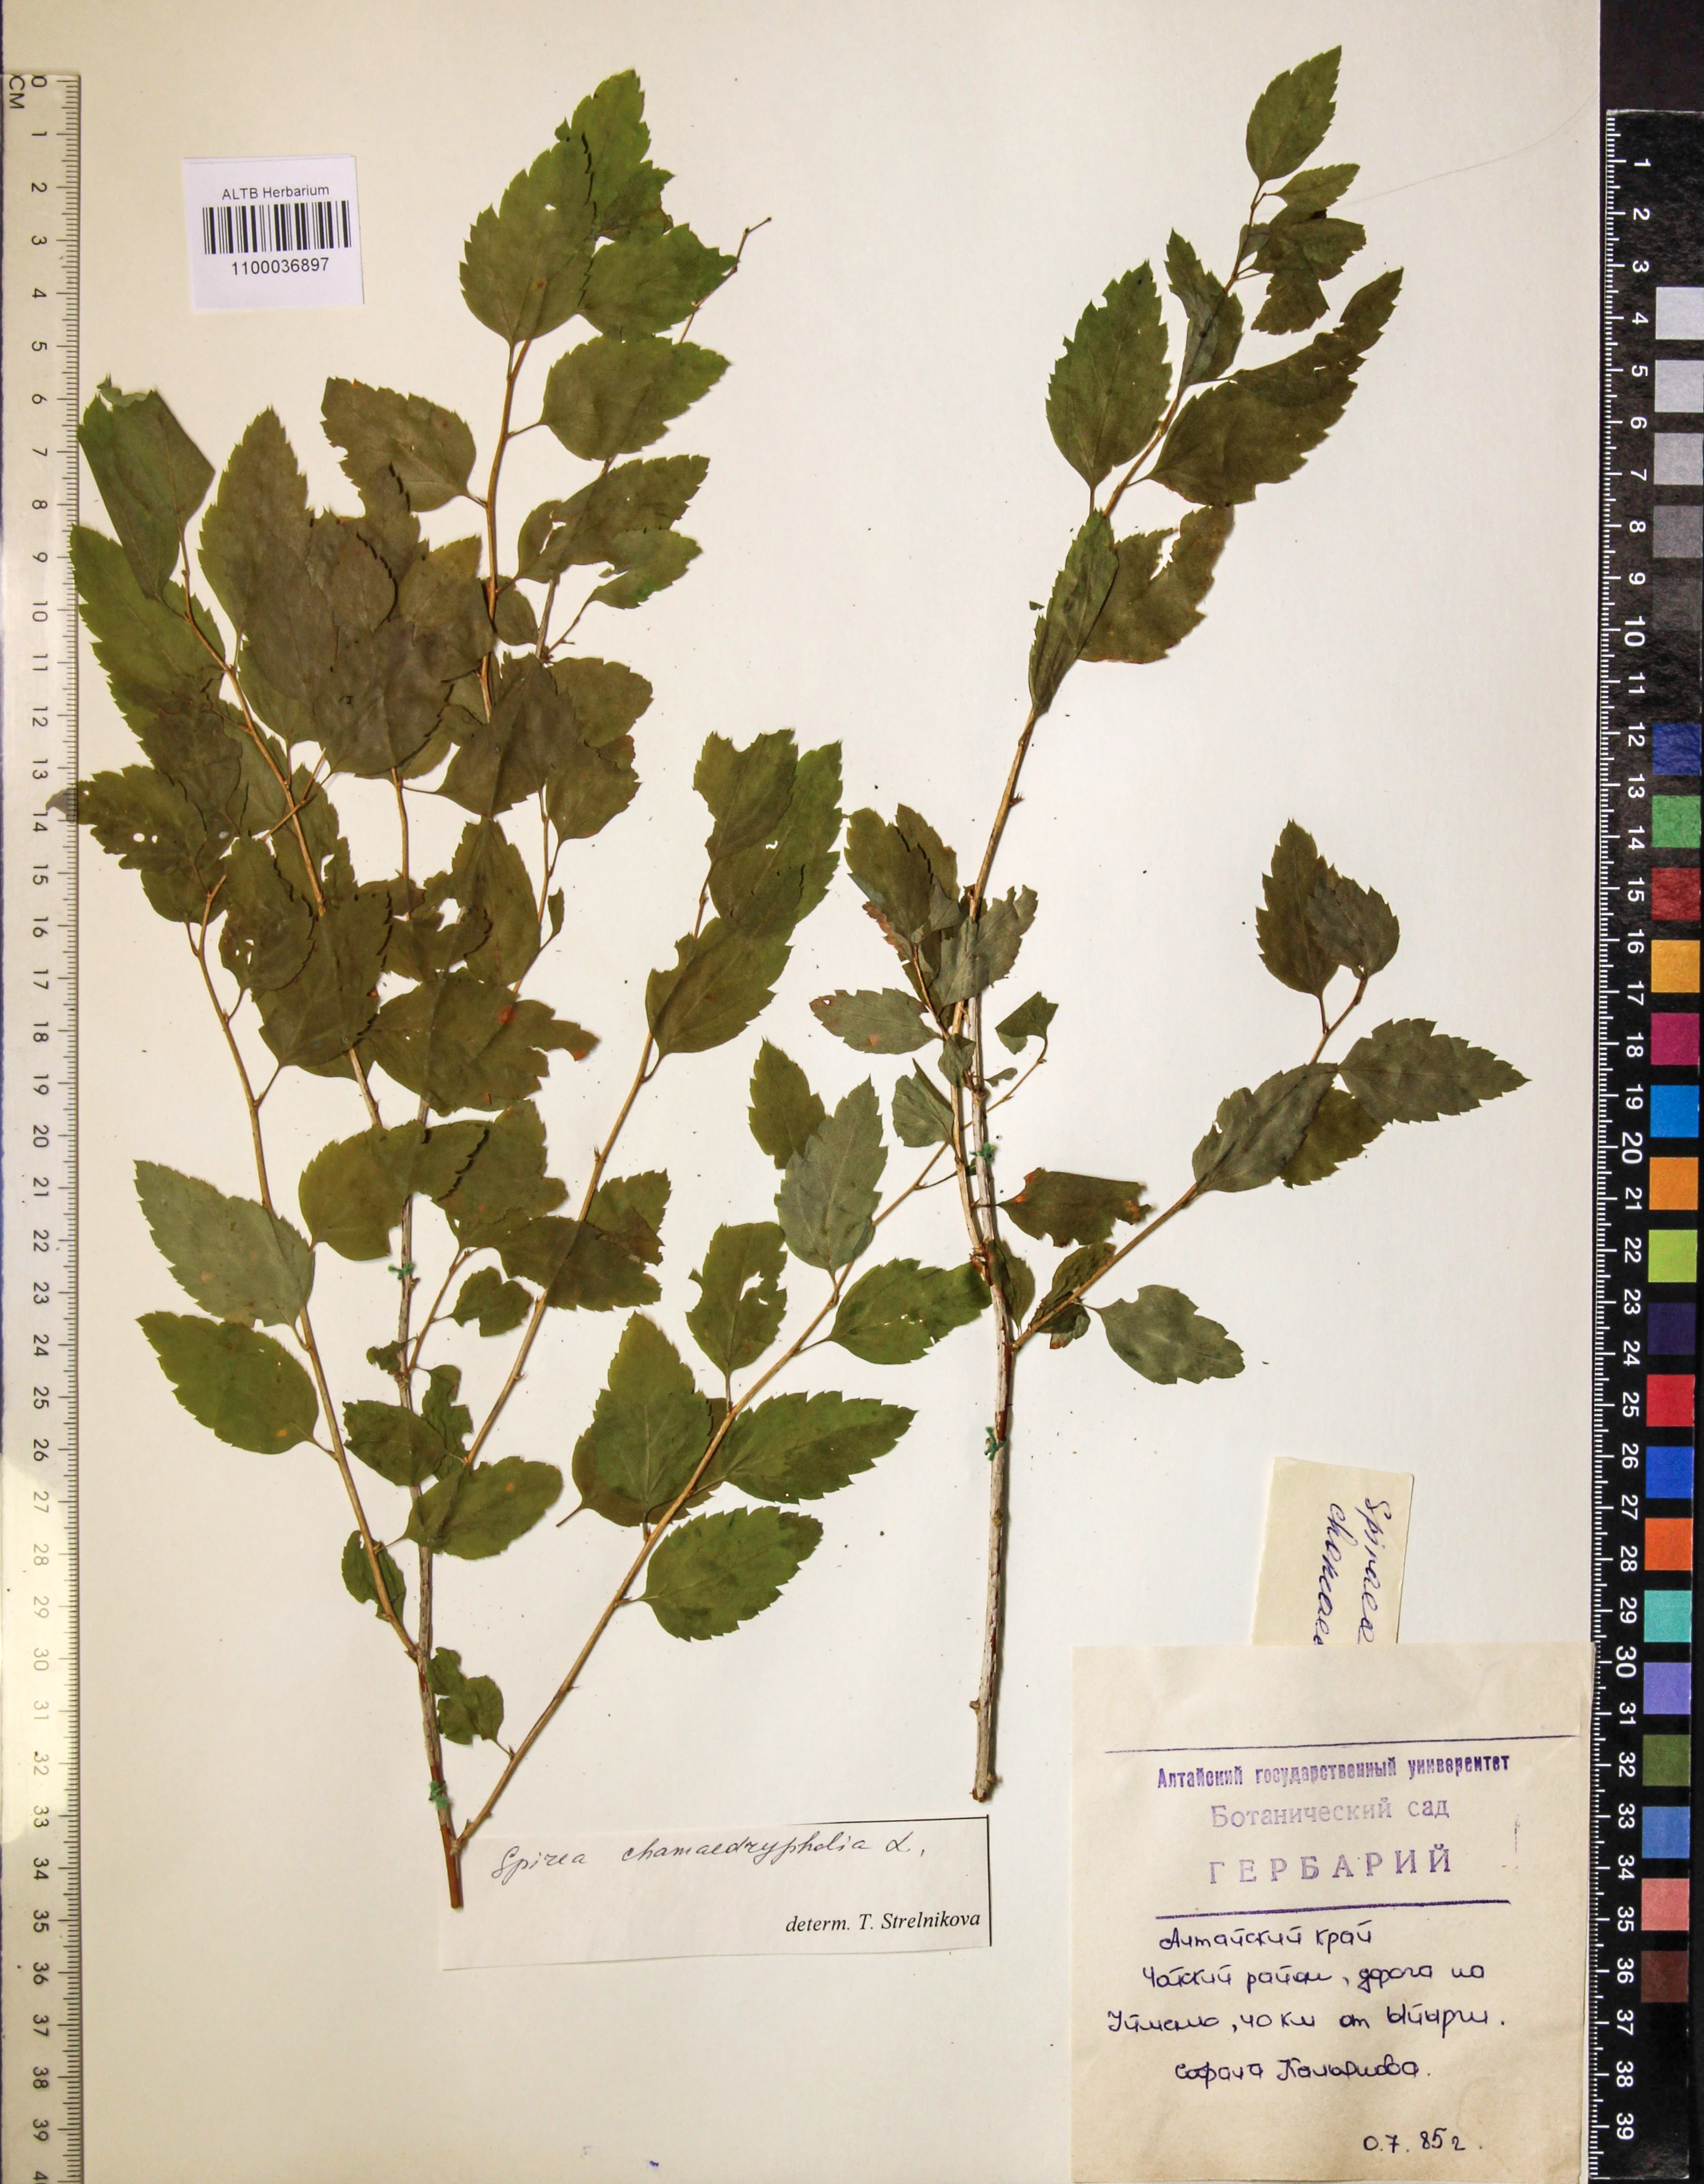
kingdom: Plantae
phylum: Tracheophyta
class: Magnoliopsida
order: Rosales
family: Rosaceae
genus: Spiraea
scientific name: Spiraea chamaedryfolia
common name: Elm-leaved spiraea
